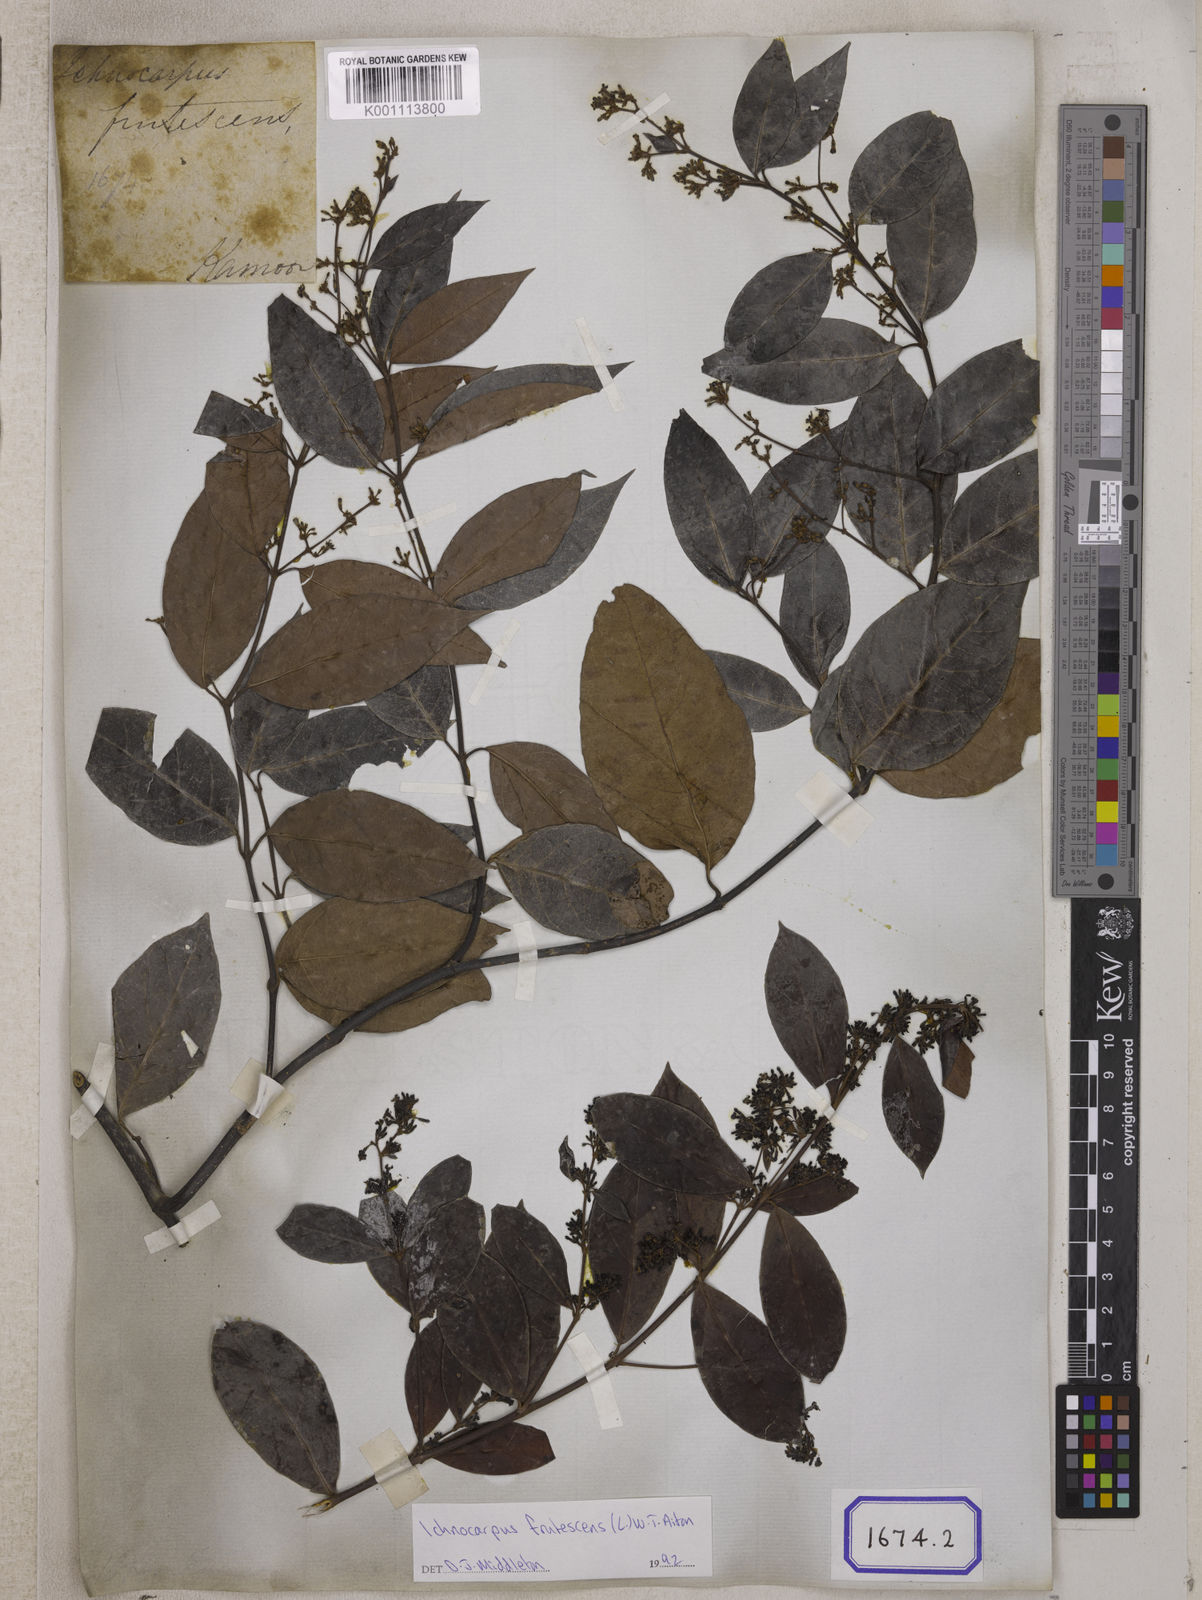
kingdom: Plantae
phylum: Tracheophyta
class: Magnoliopsida
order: Gentianales
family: Apocynaceae
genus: Ichnocarpus
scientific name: Ichnocarpus
